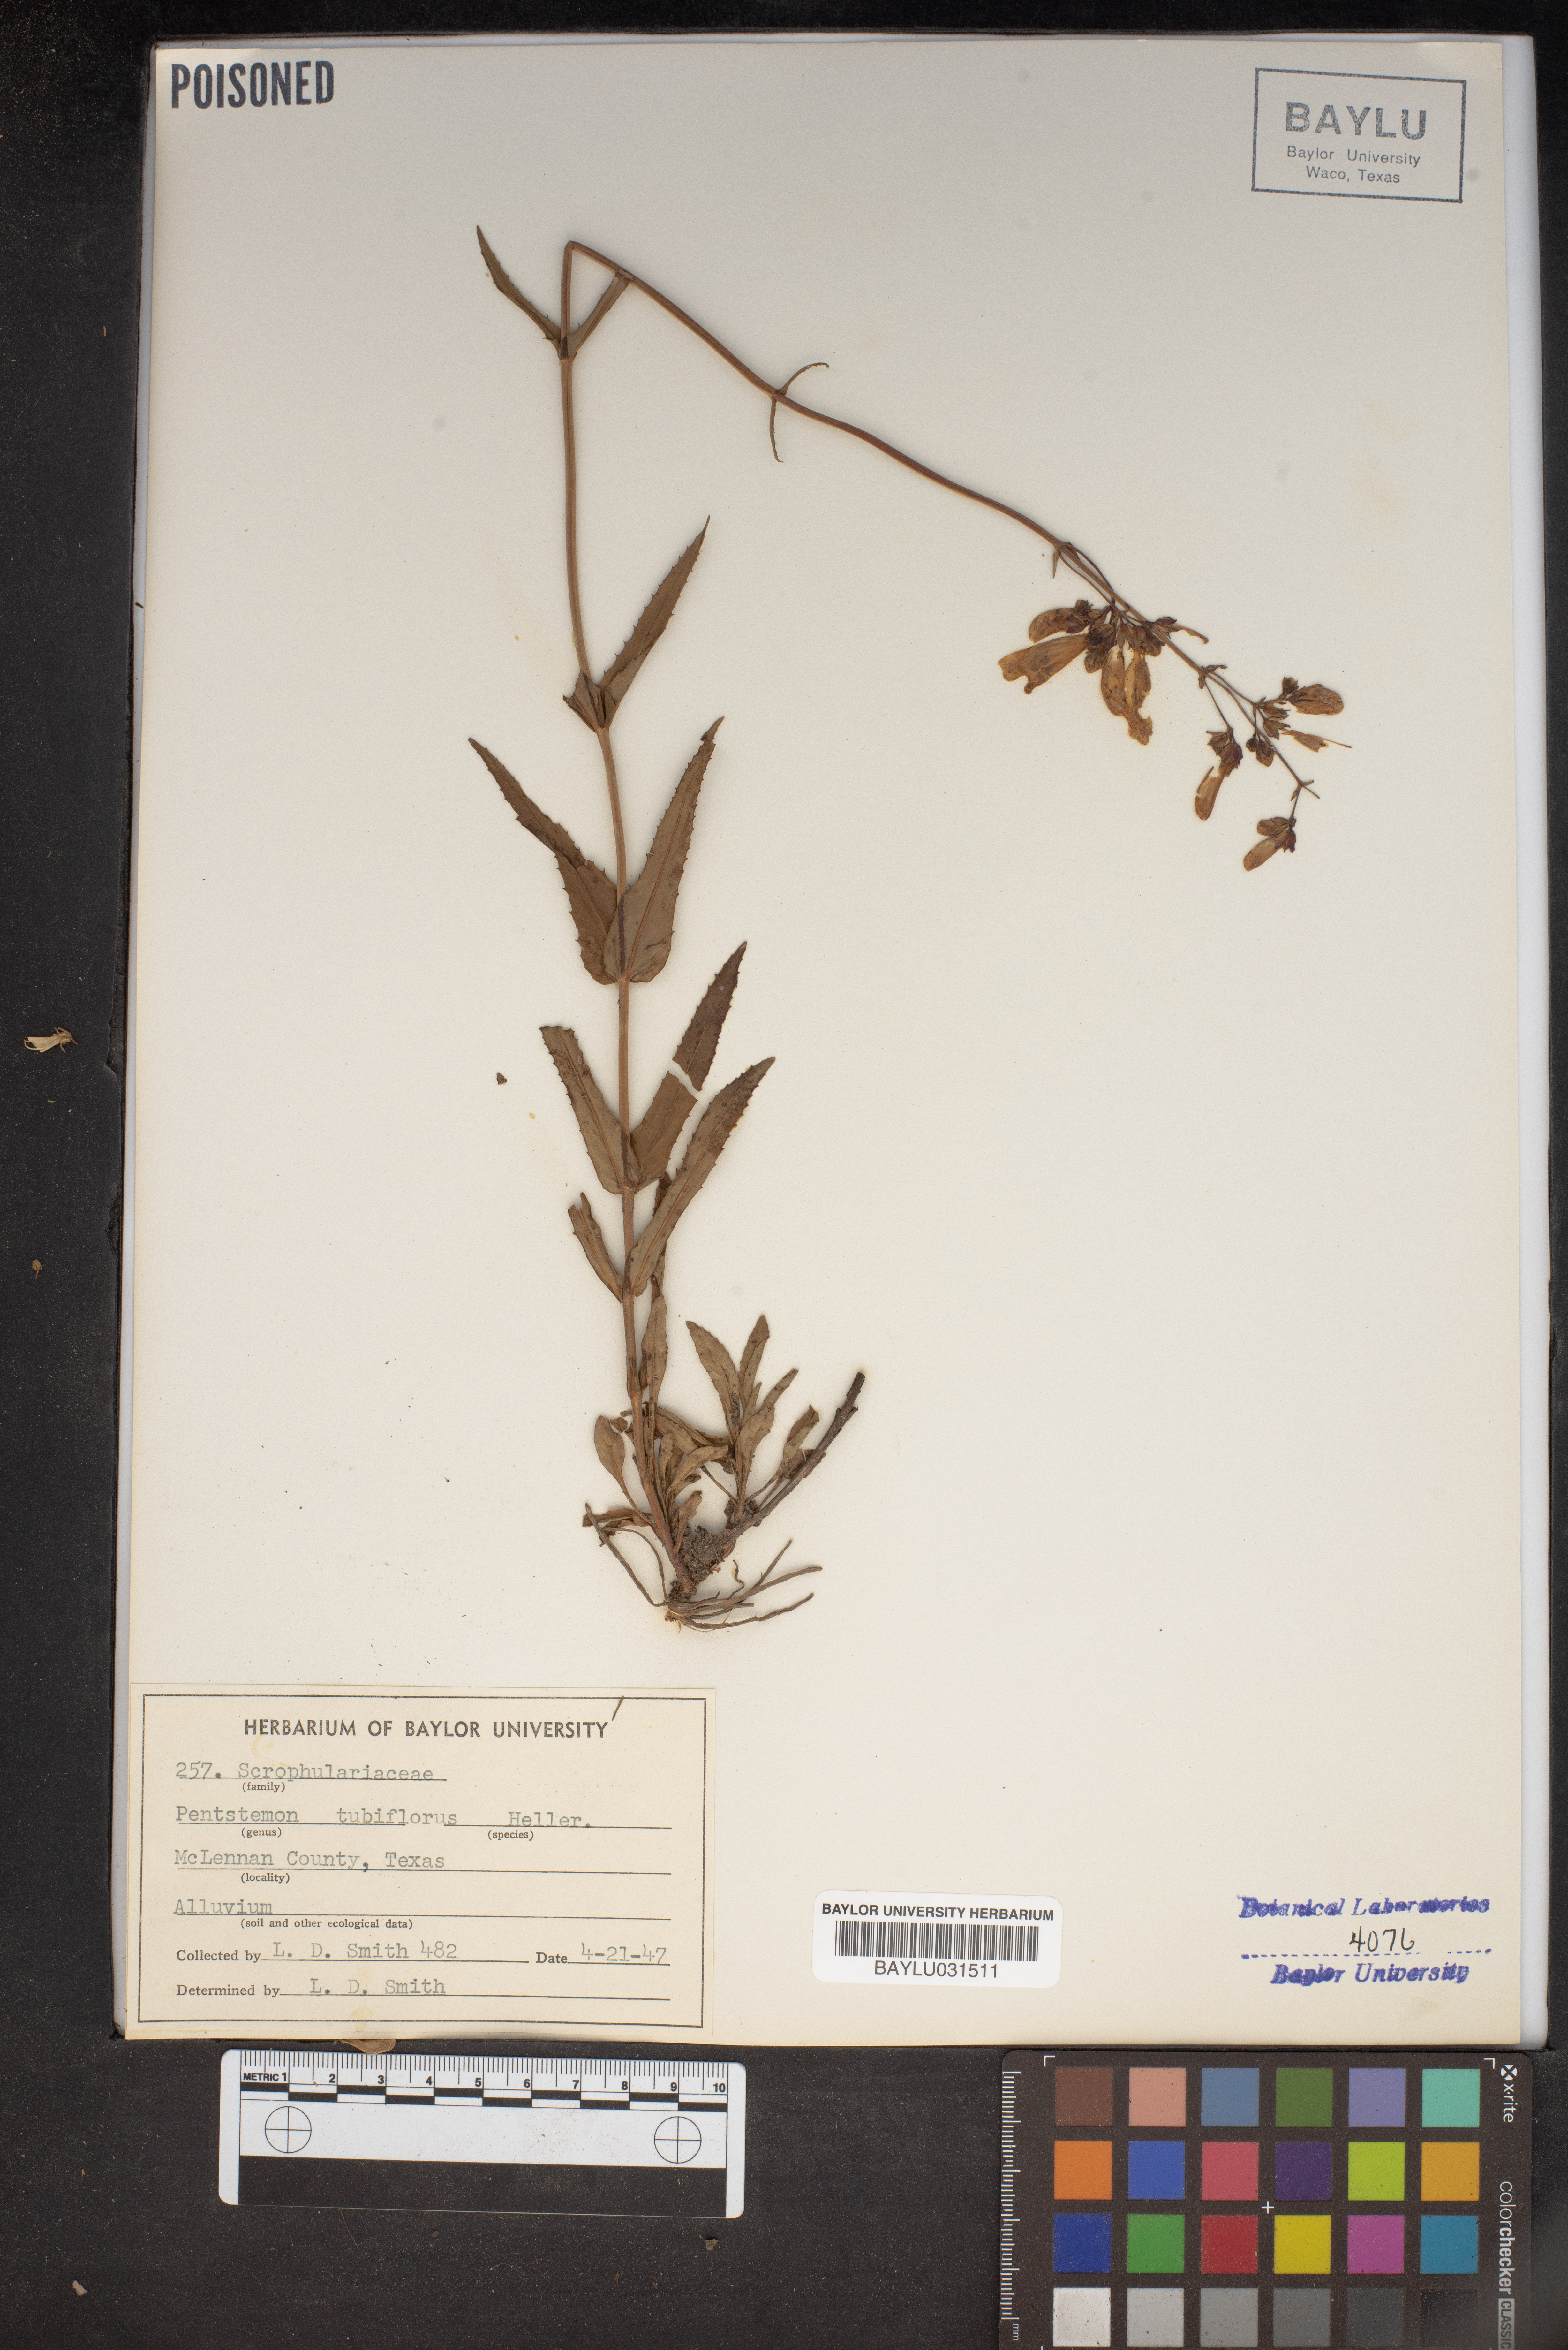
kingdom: Plantae
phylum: Tracheophyta
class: Magnoliopsida
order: Lamiales
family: Plantaginaceae
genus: Penstemon
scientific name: Penstemon tubaeflorus
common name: White wand beardtongue
